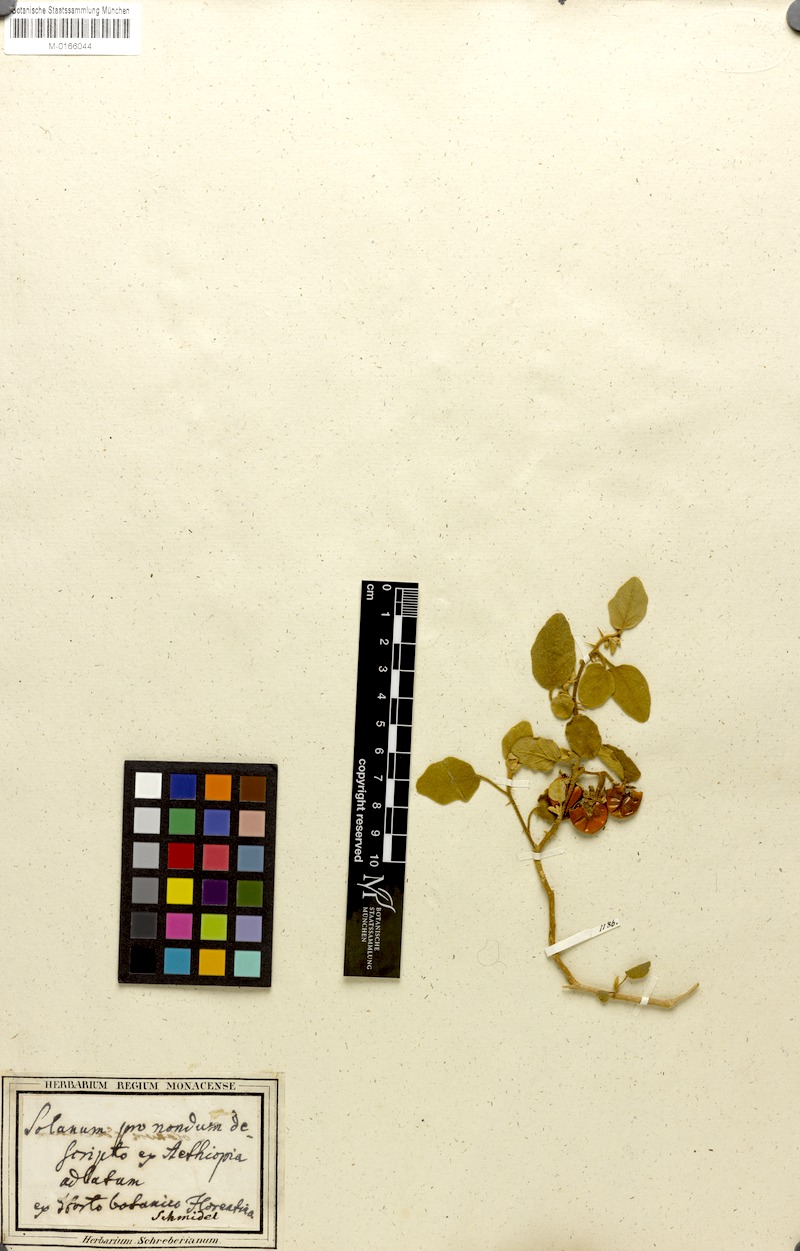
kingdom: Plantae
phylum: Tracheophyta
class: Magnoliopsida
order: Solanales
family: Solanaceae
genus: Solanum
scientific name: Solanum tomentosum
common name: Wild aubergine
